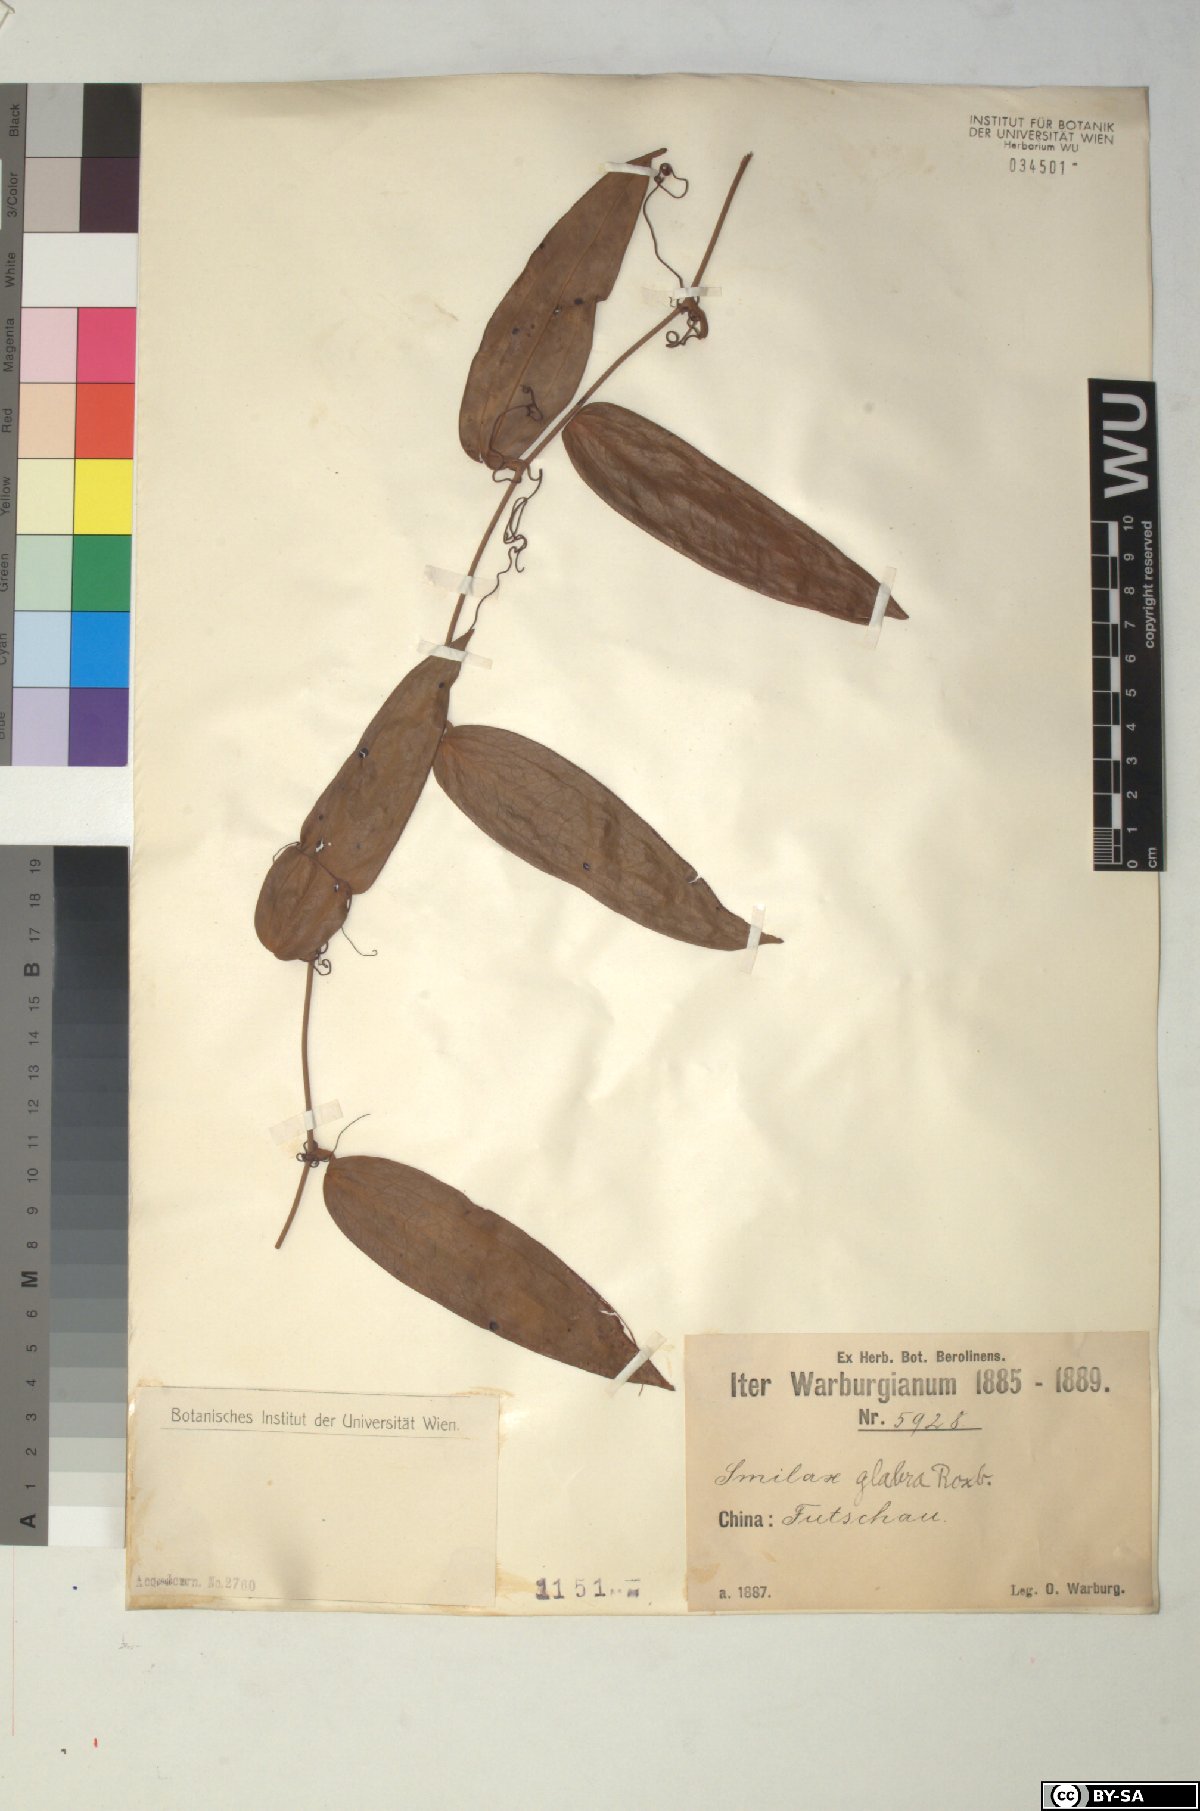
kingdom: Plantae
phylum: Tracheophyta
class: Liliopsida
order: Liliales
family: Smilacaceae
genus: Smilax
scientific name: Smilax glabra
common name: Chinese smilax
